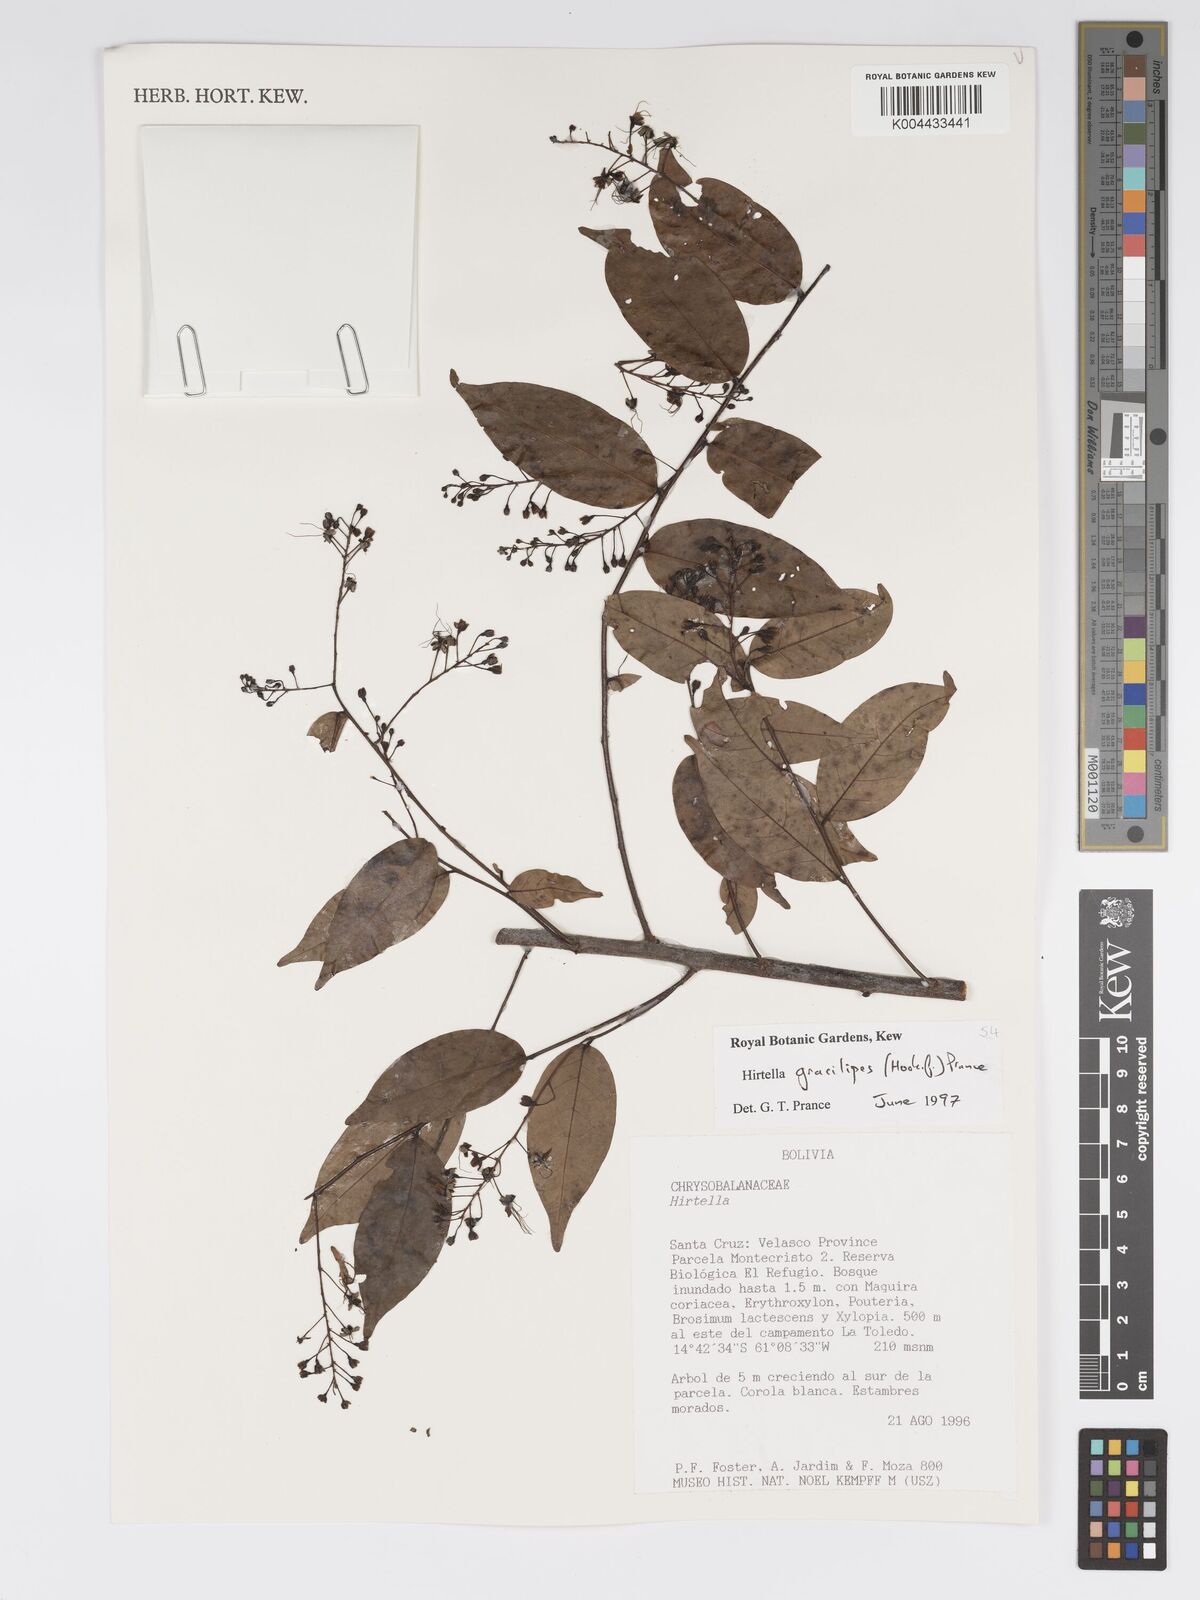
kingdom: Plantae
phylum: Tracheophyta
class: Magnoliopsida
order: Malpighiales
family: Chrysobalanaceae
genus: Hirtella
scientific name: Hirtella gracilipes
